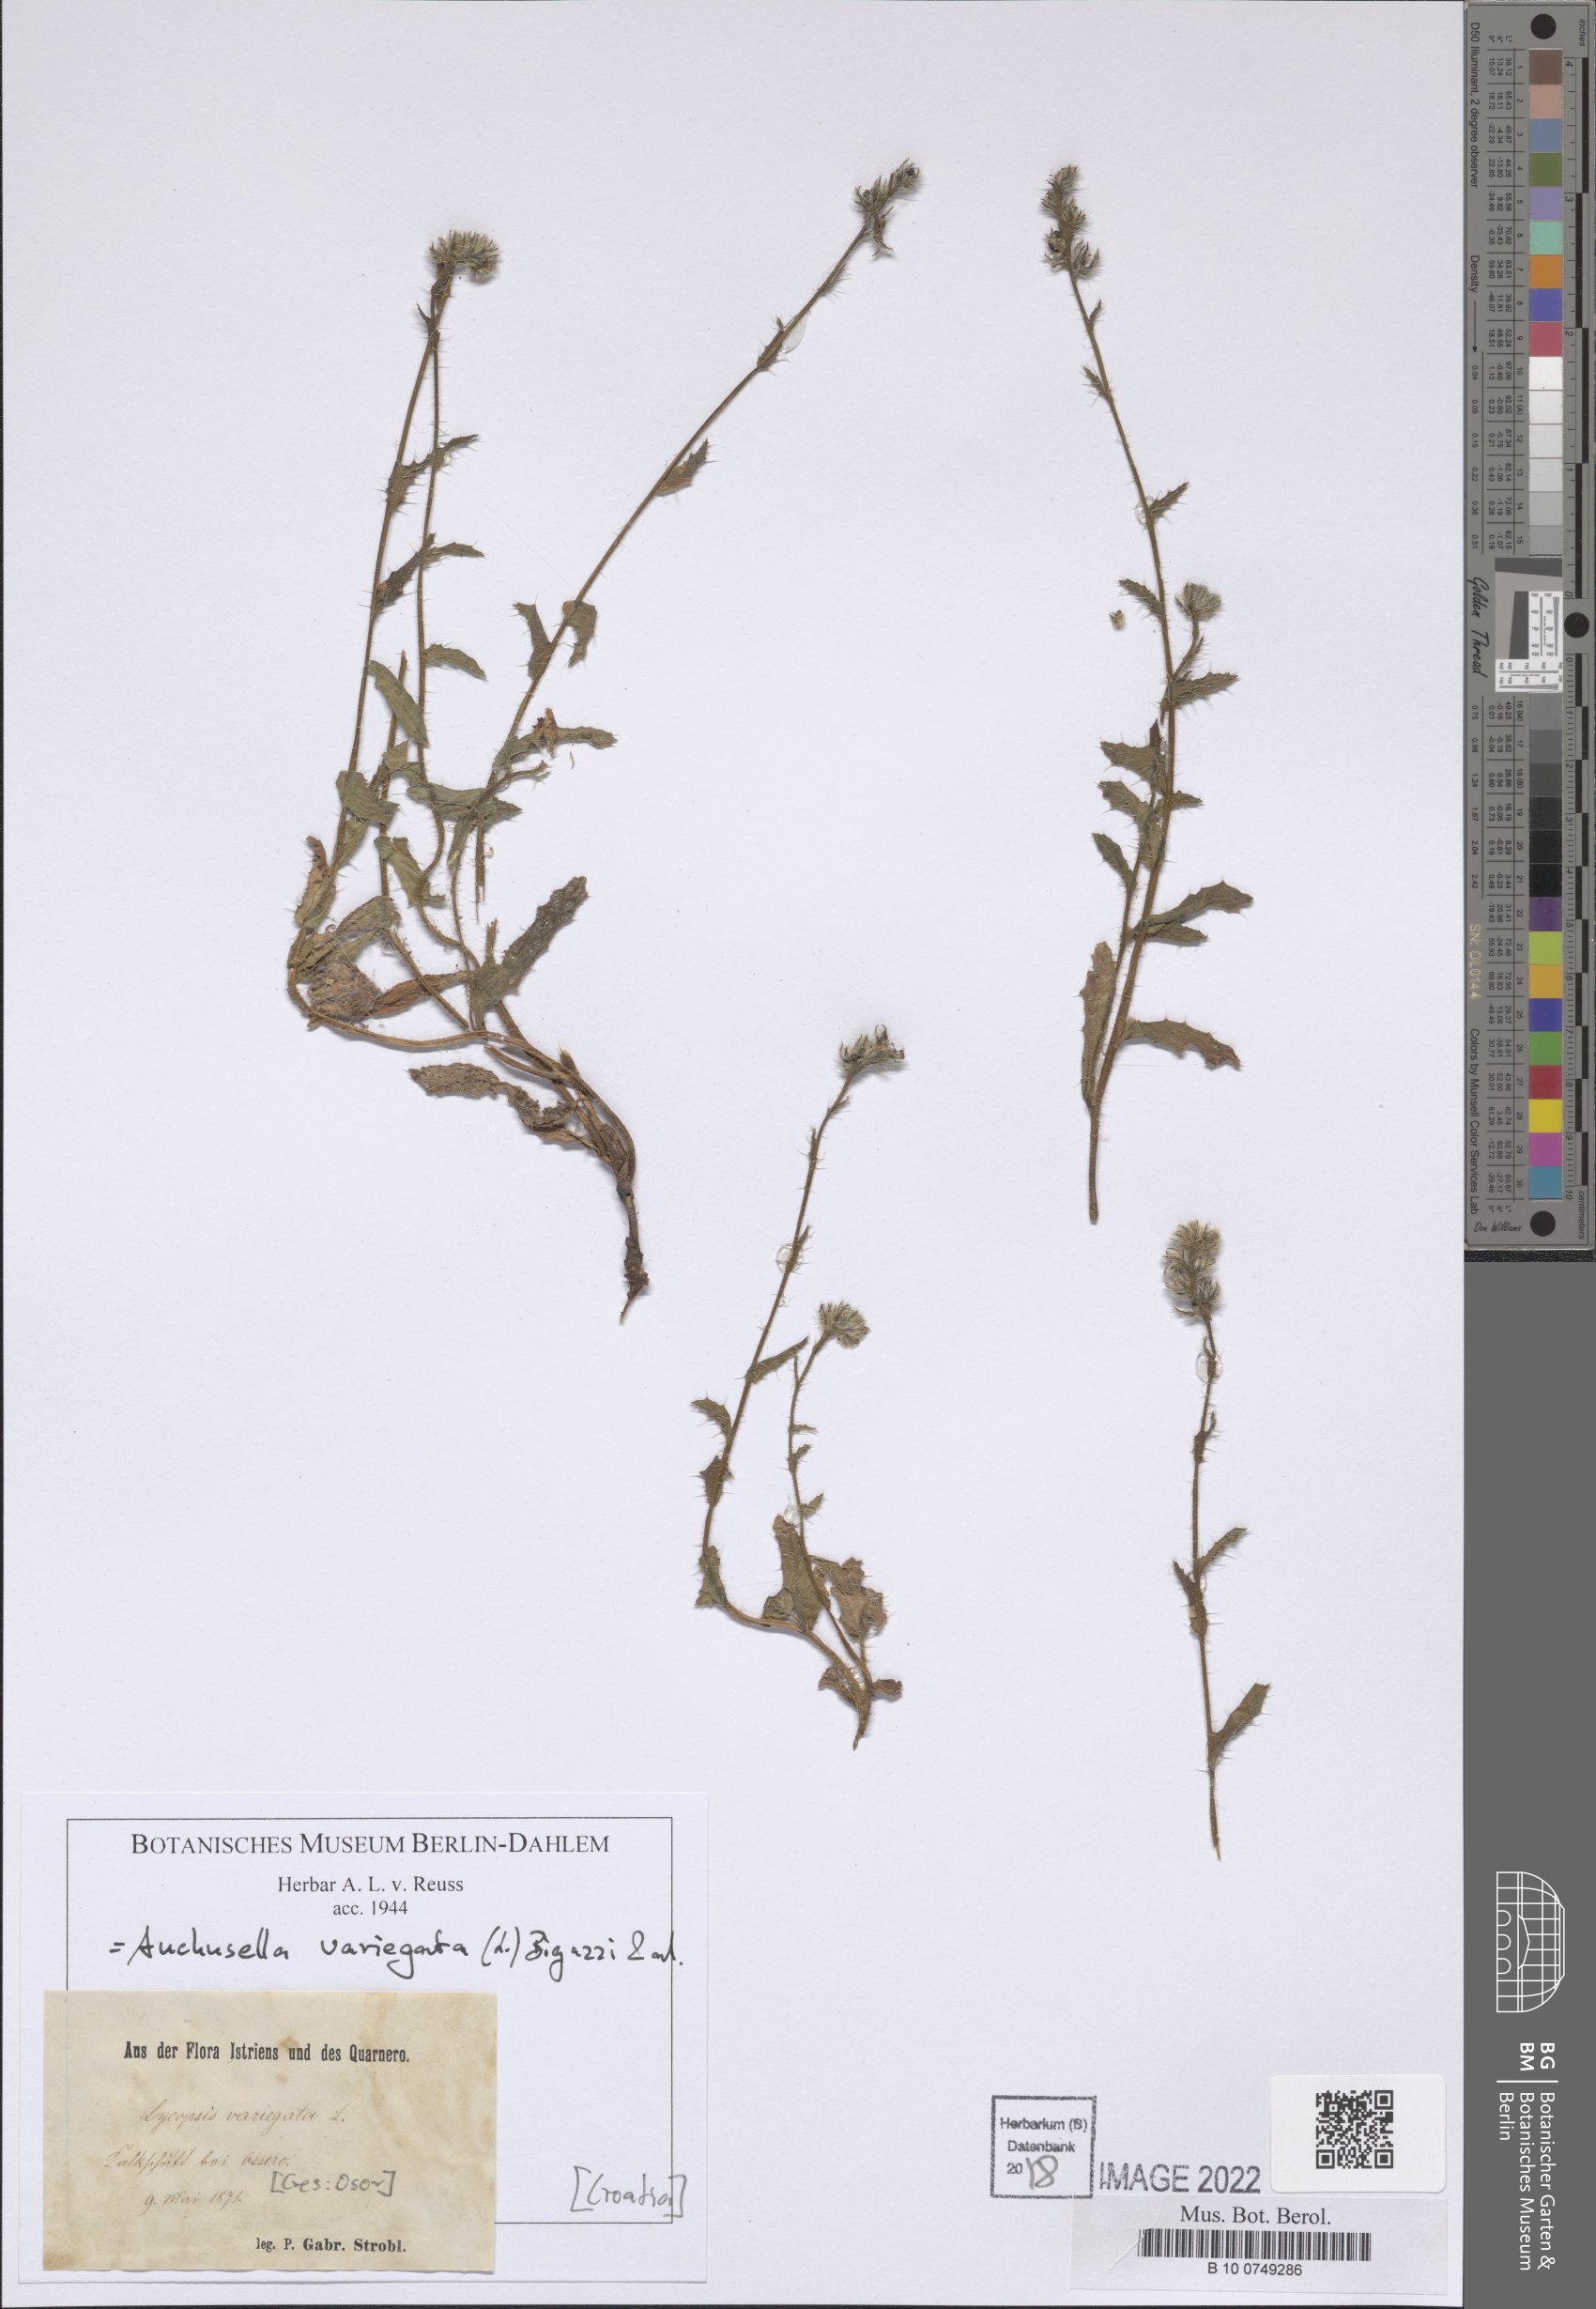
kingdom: Plantae
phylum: Tracheophyta
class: Magnoliopsida
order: Boraginales
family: Boraginaceae
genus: Anchusella
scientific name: Anchusella variegata
